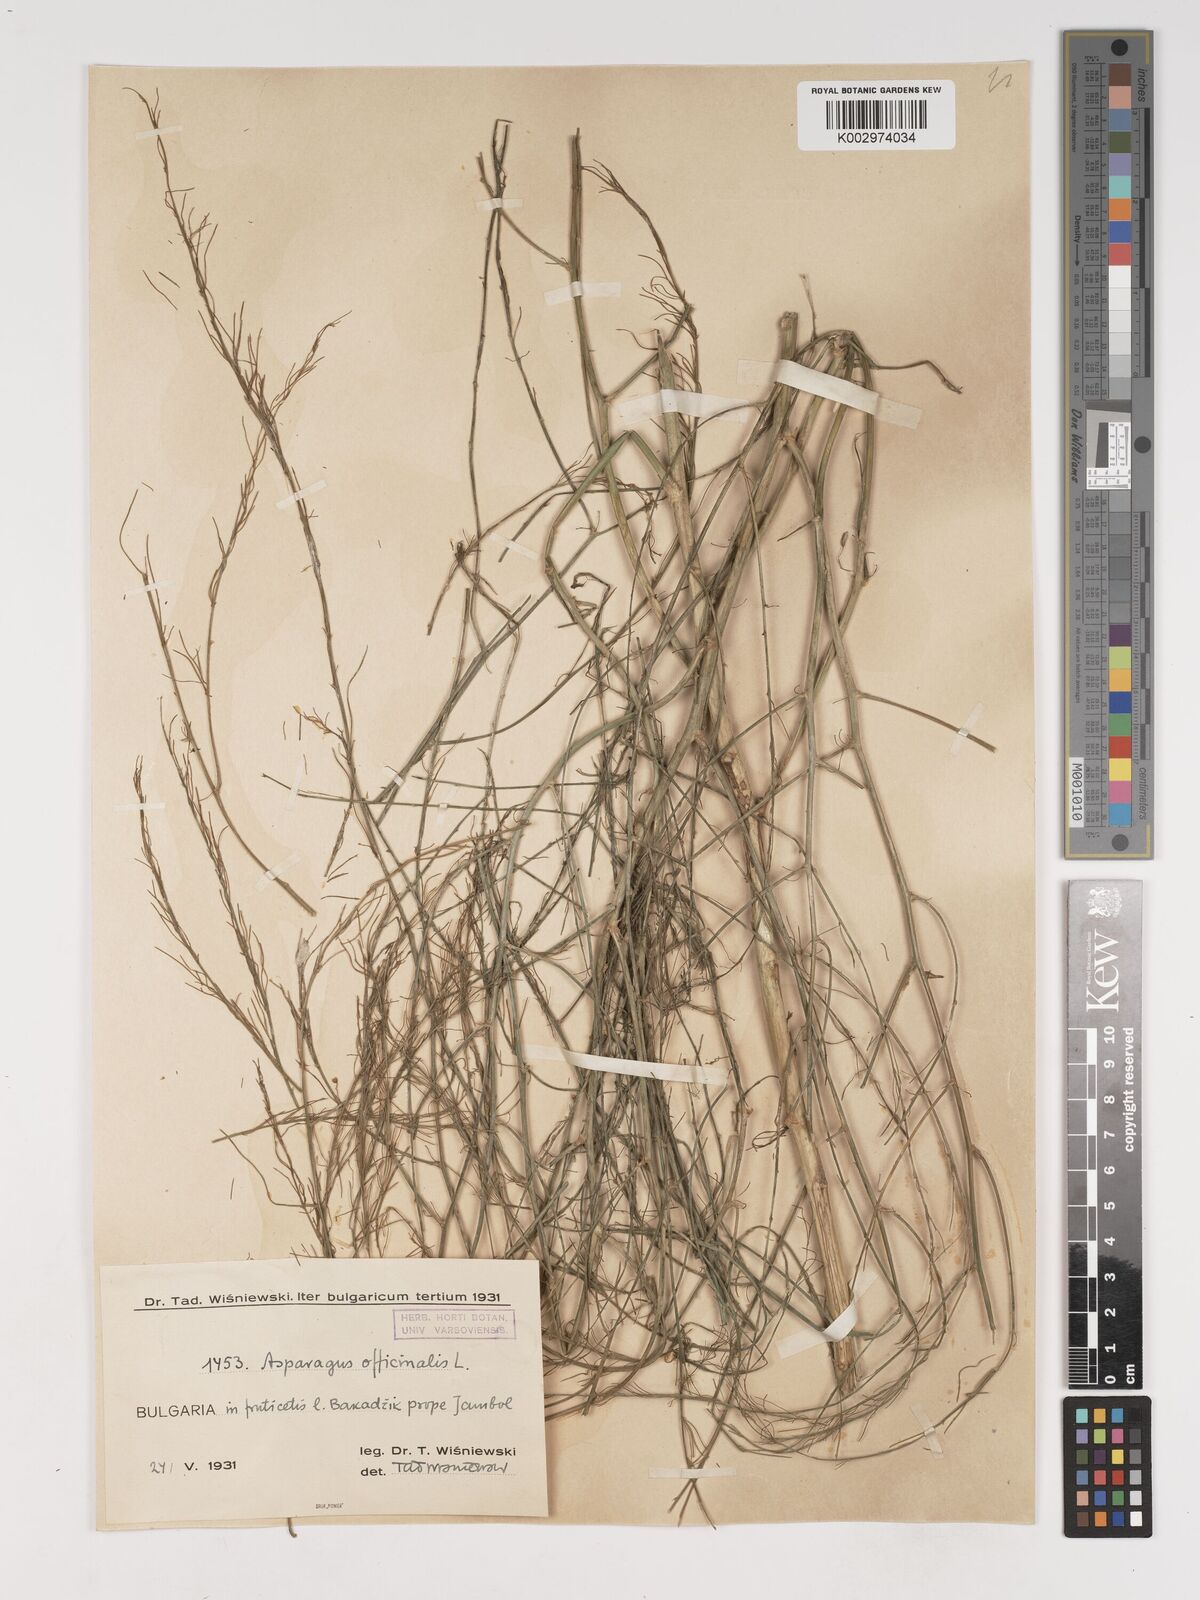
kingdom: Plantae
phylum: Tracheophyta
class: Liliopsida
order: Asparagales
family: Asparagaceae
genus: Asparagus
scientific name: Asparagus officinalis
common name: Garden asparagus
